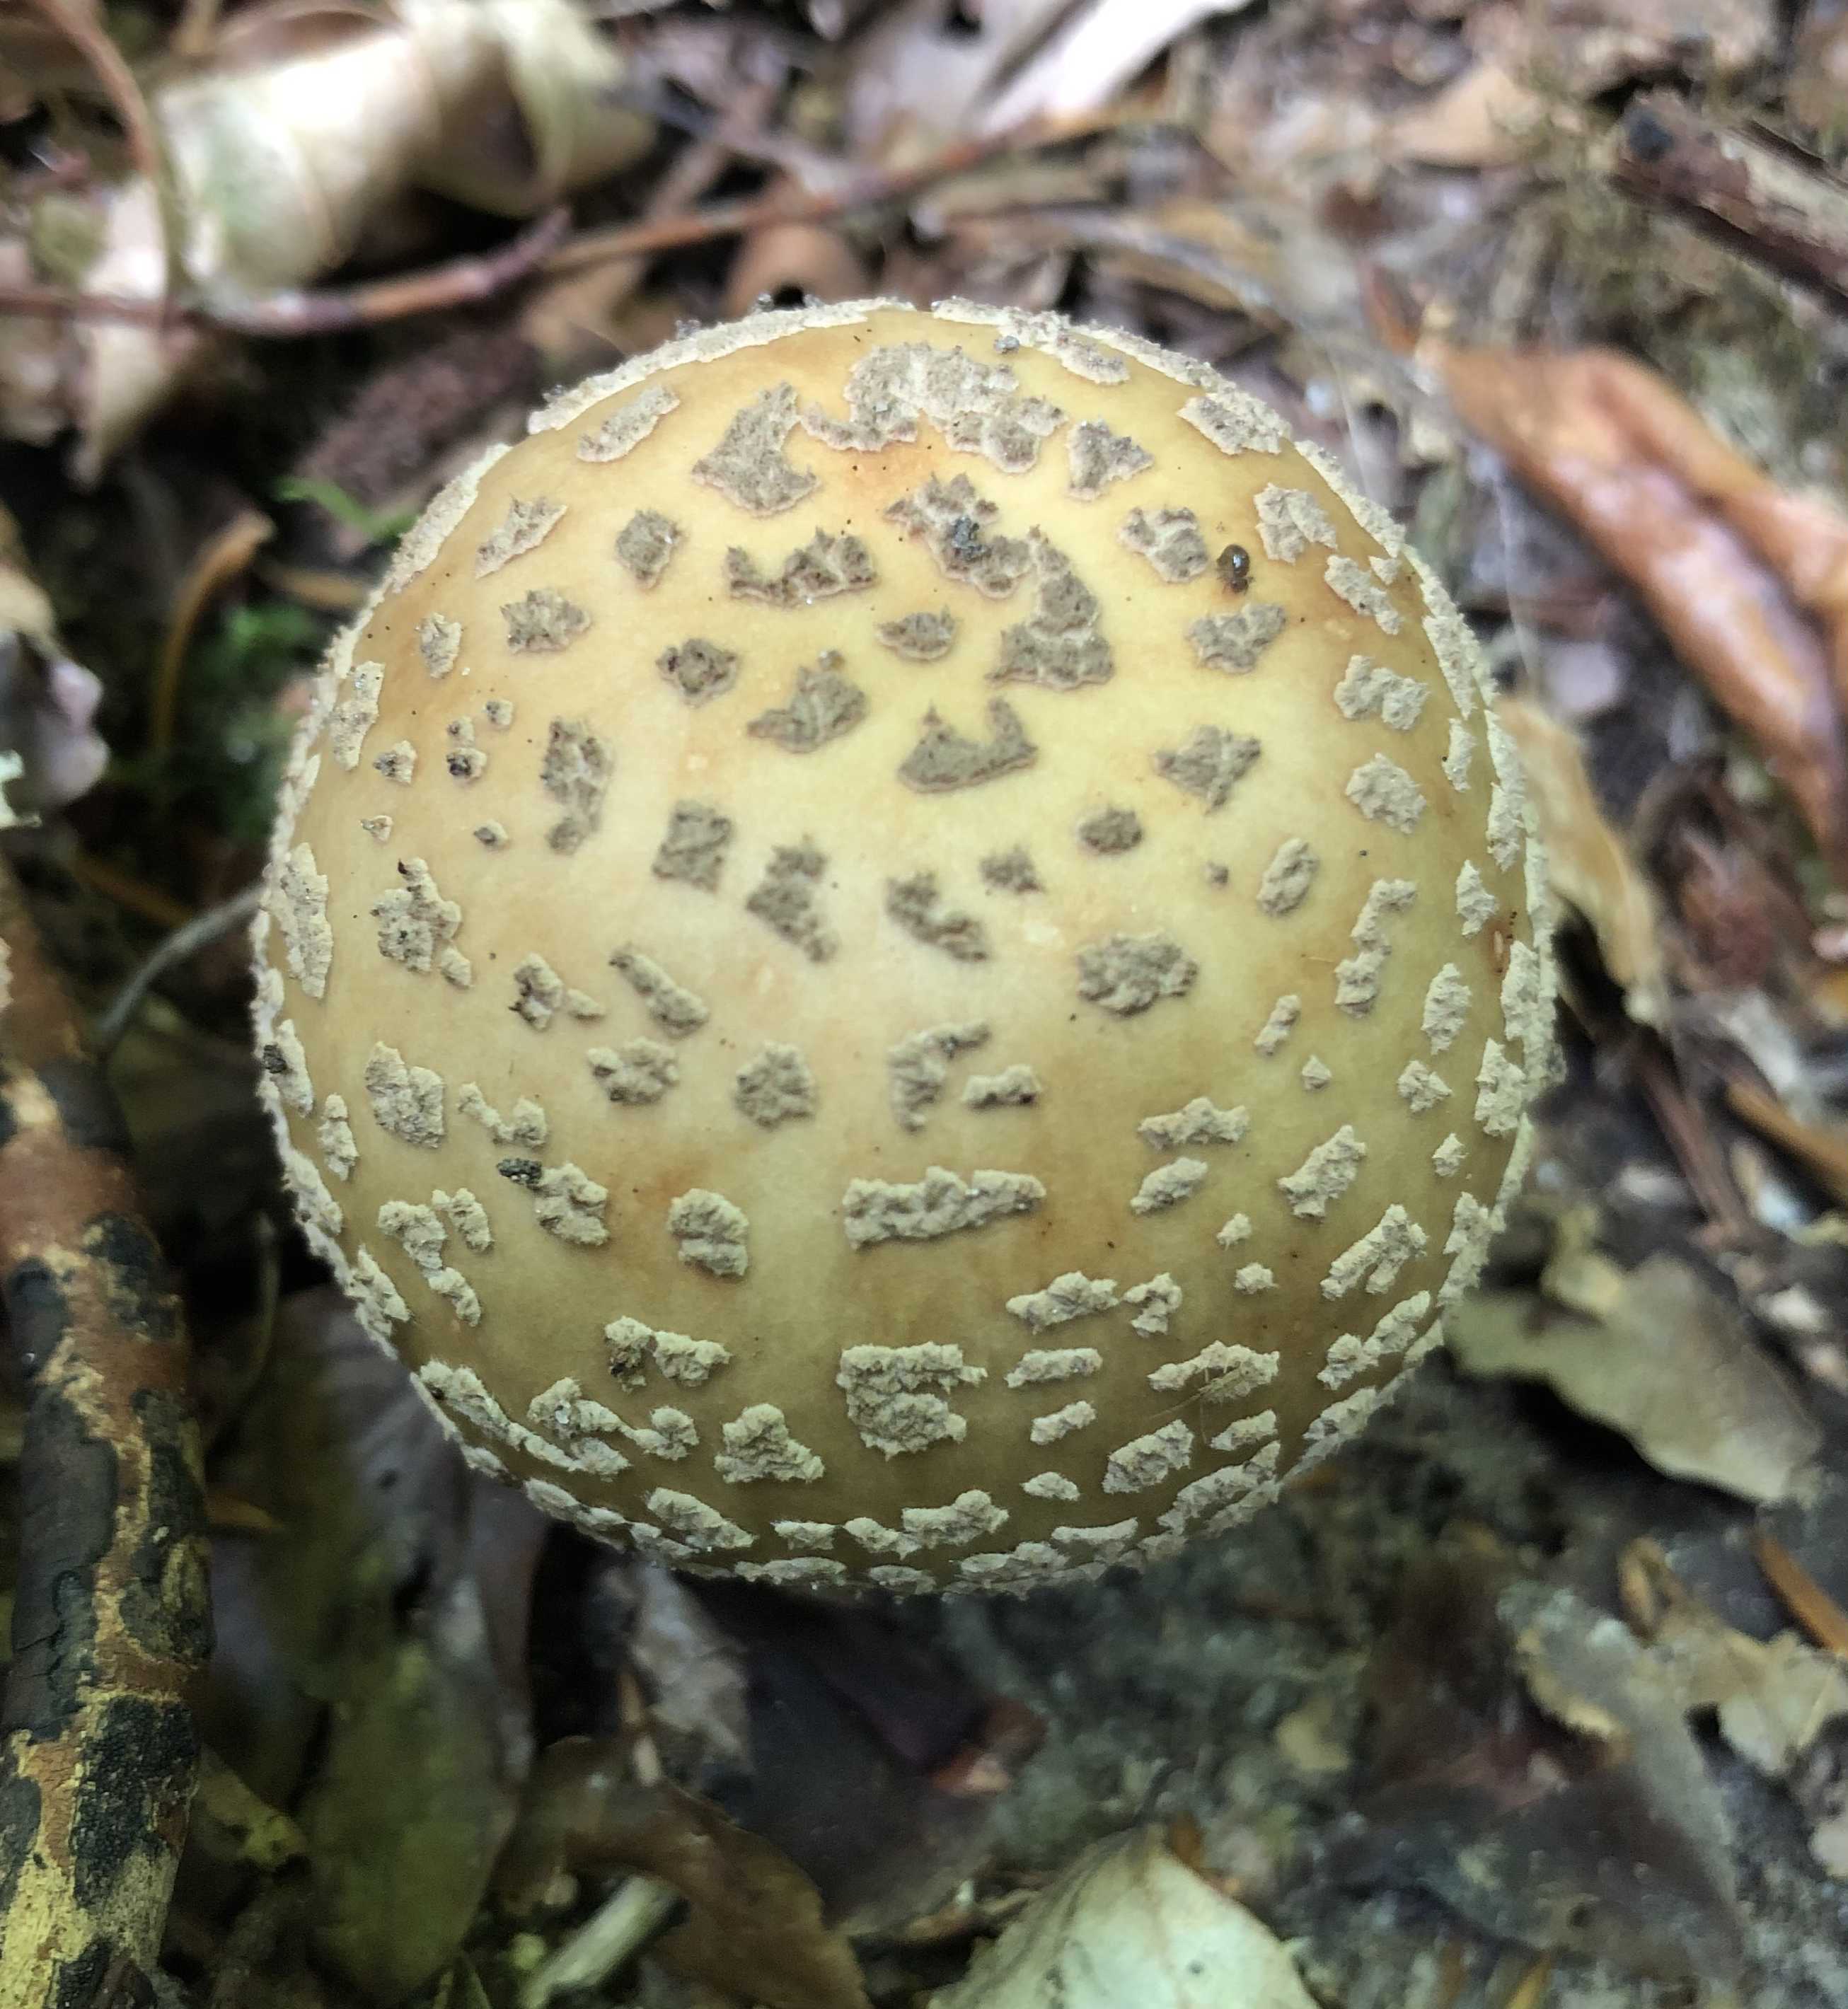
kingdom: Fungi
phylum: Basidiomycota
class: Agaricomycetes
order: Agaricales
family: Amanitaceae
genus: Amanita
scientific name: Amanita rubescens
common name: rødmende fluesvamp
